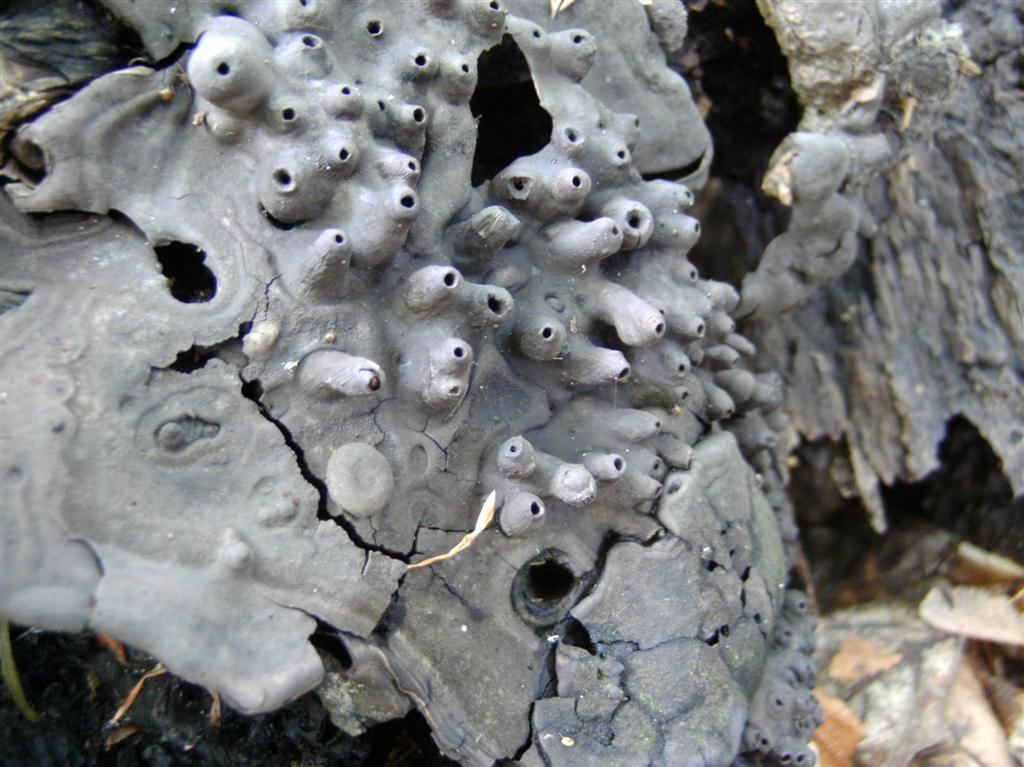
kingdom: Fungi
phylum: Basidiomycota
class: Agaricomycetes
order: Polyporales
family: Polyporaceae
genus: Ganoderma
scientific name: Ganoderma applanatum
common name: flad lakporesvamp
